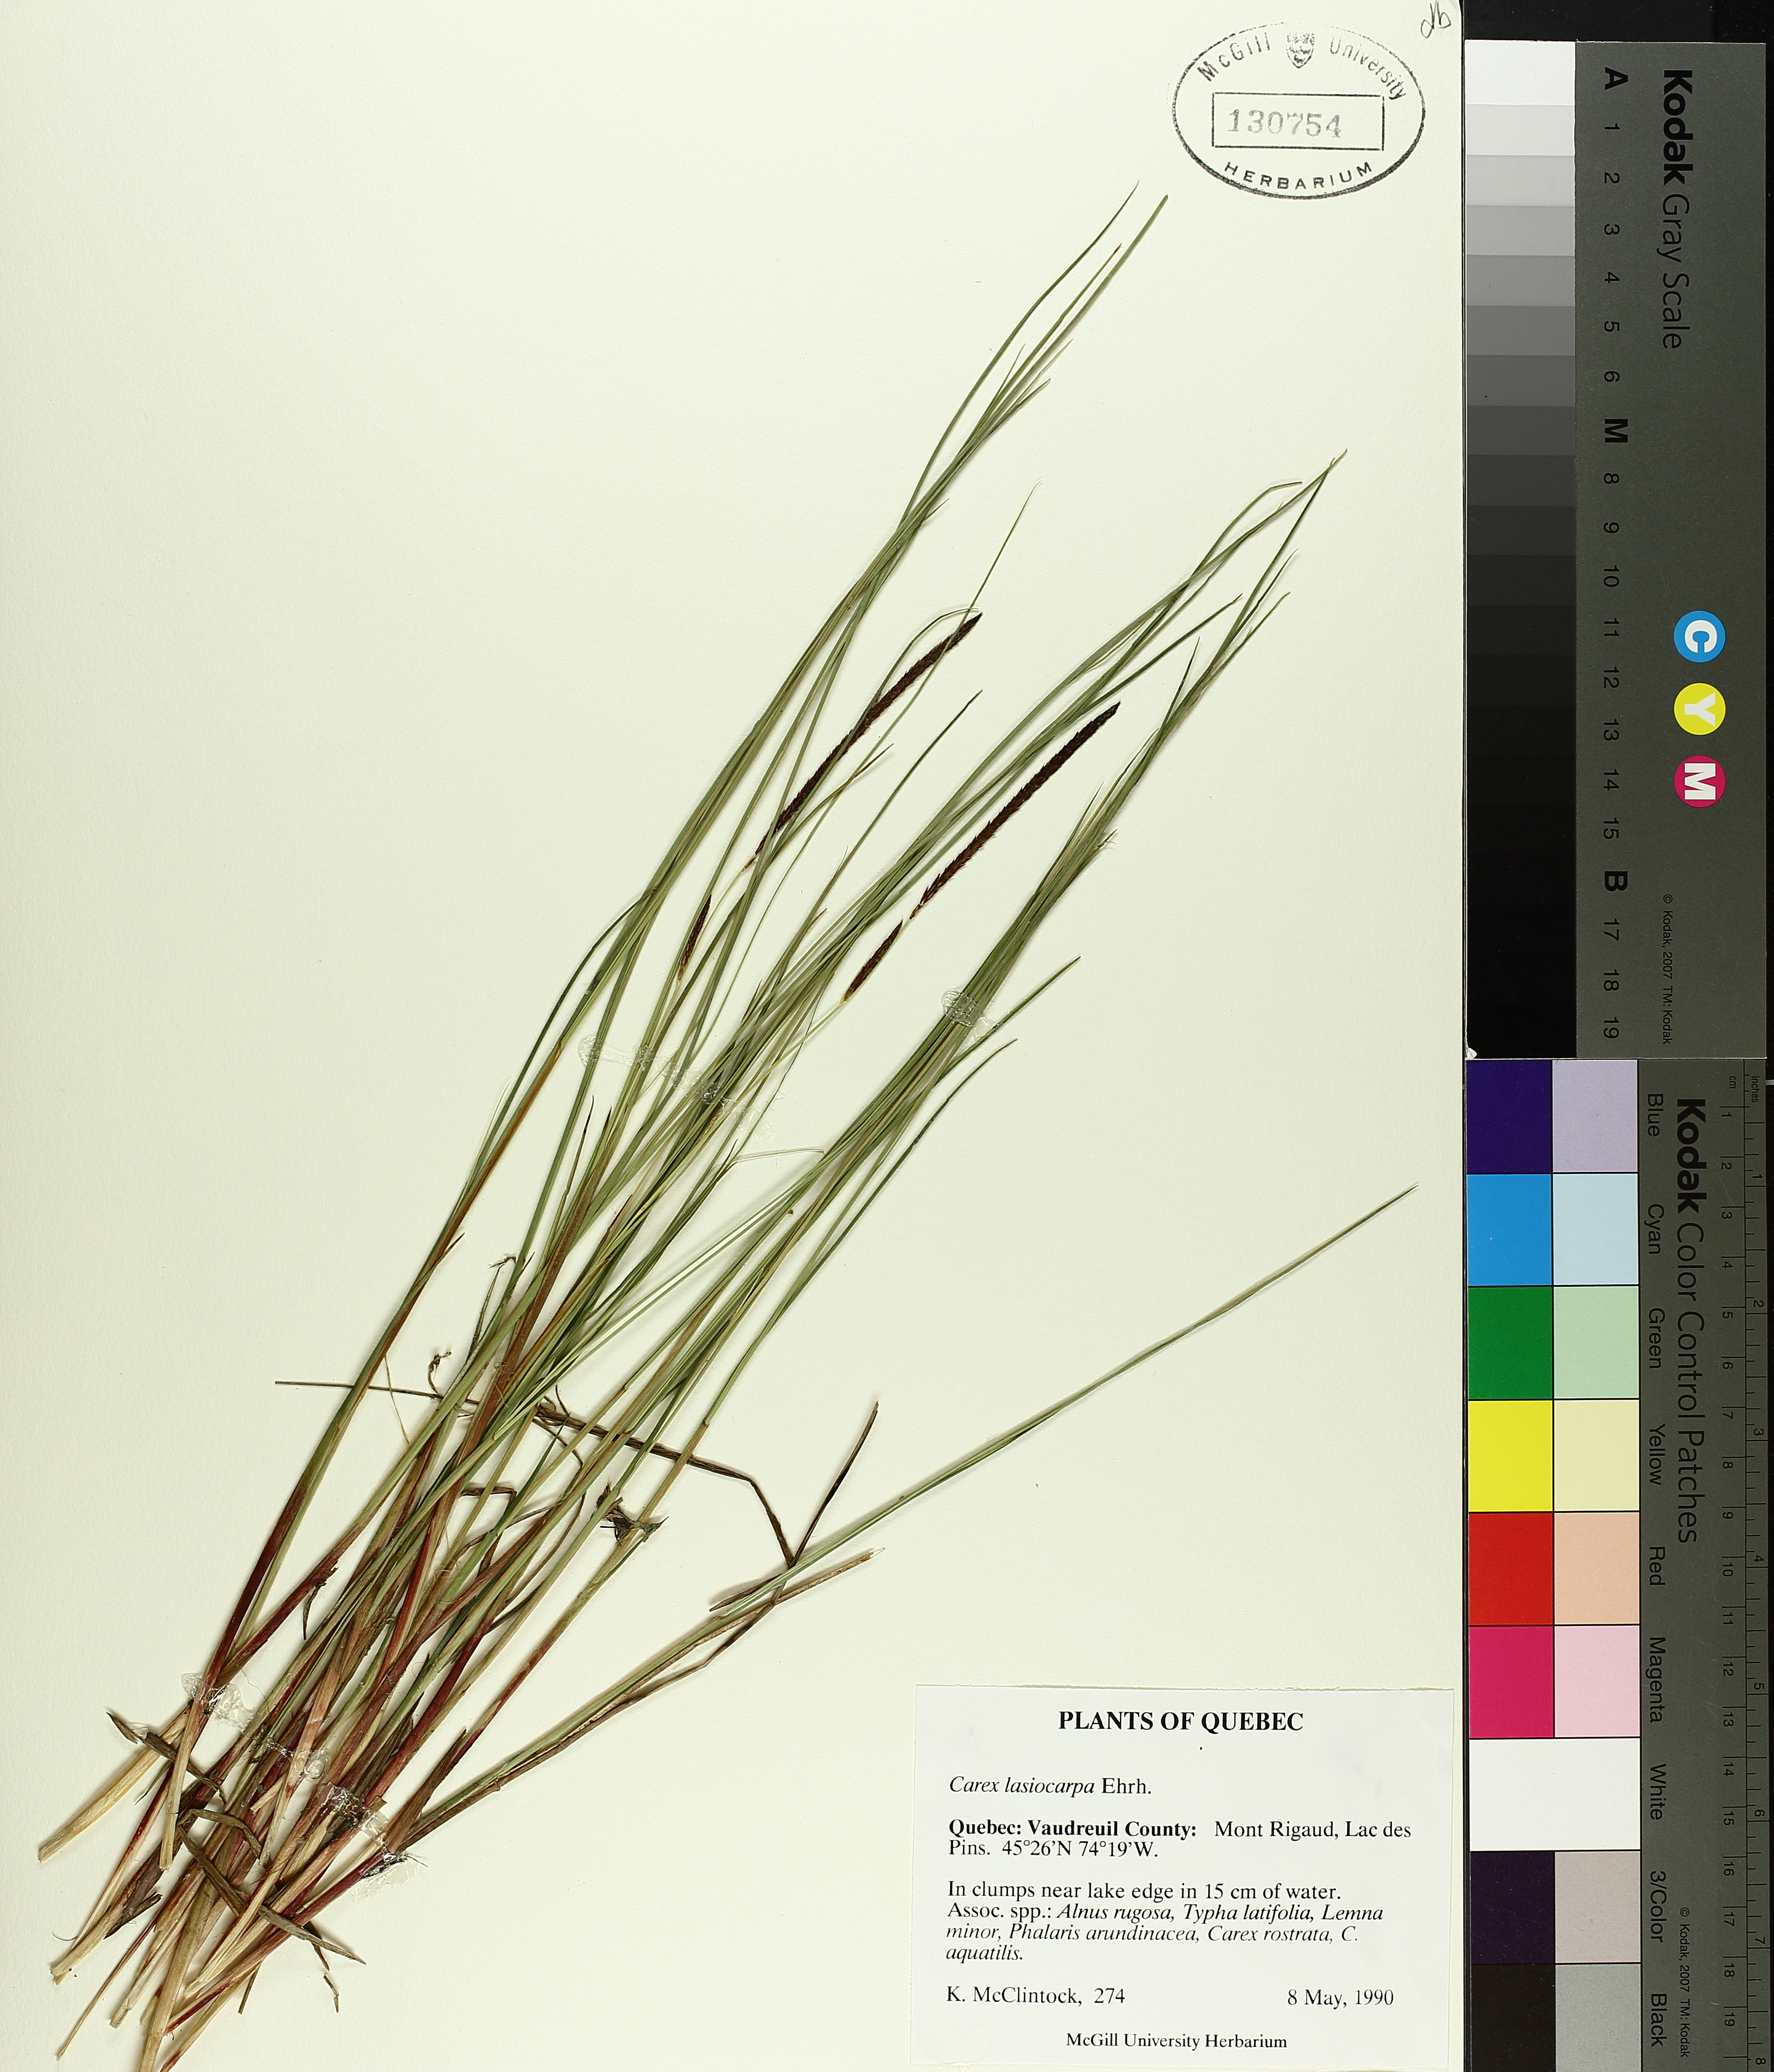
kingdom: Plantae
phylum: Tracheophyta
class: Liliopsida
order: Poales
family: Cyperaceae
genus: Carex
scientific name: Carex lasiocarpa
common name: Slender sedge
